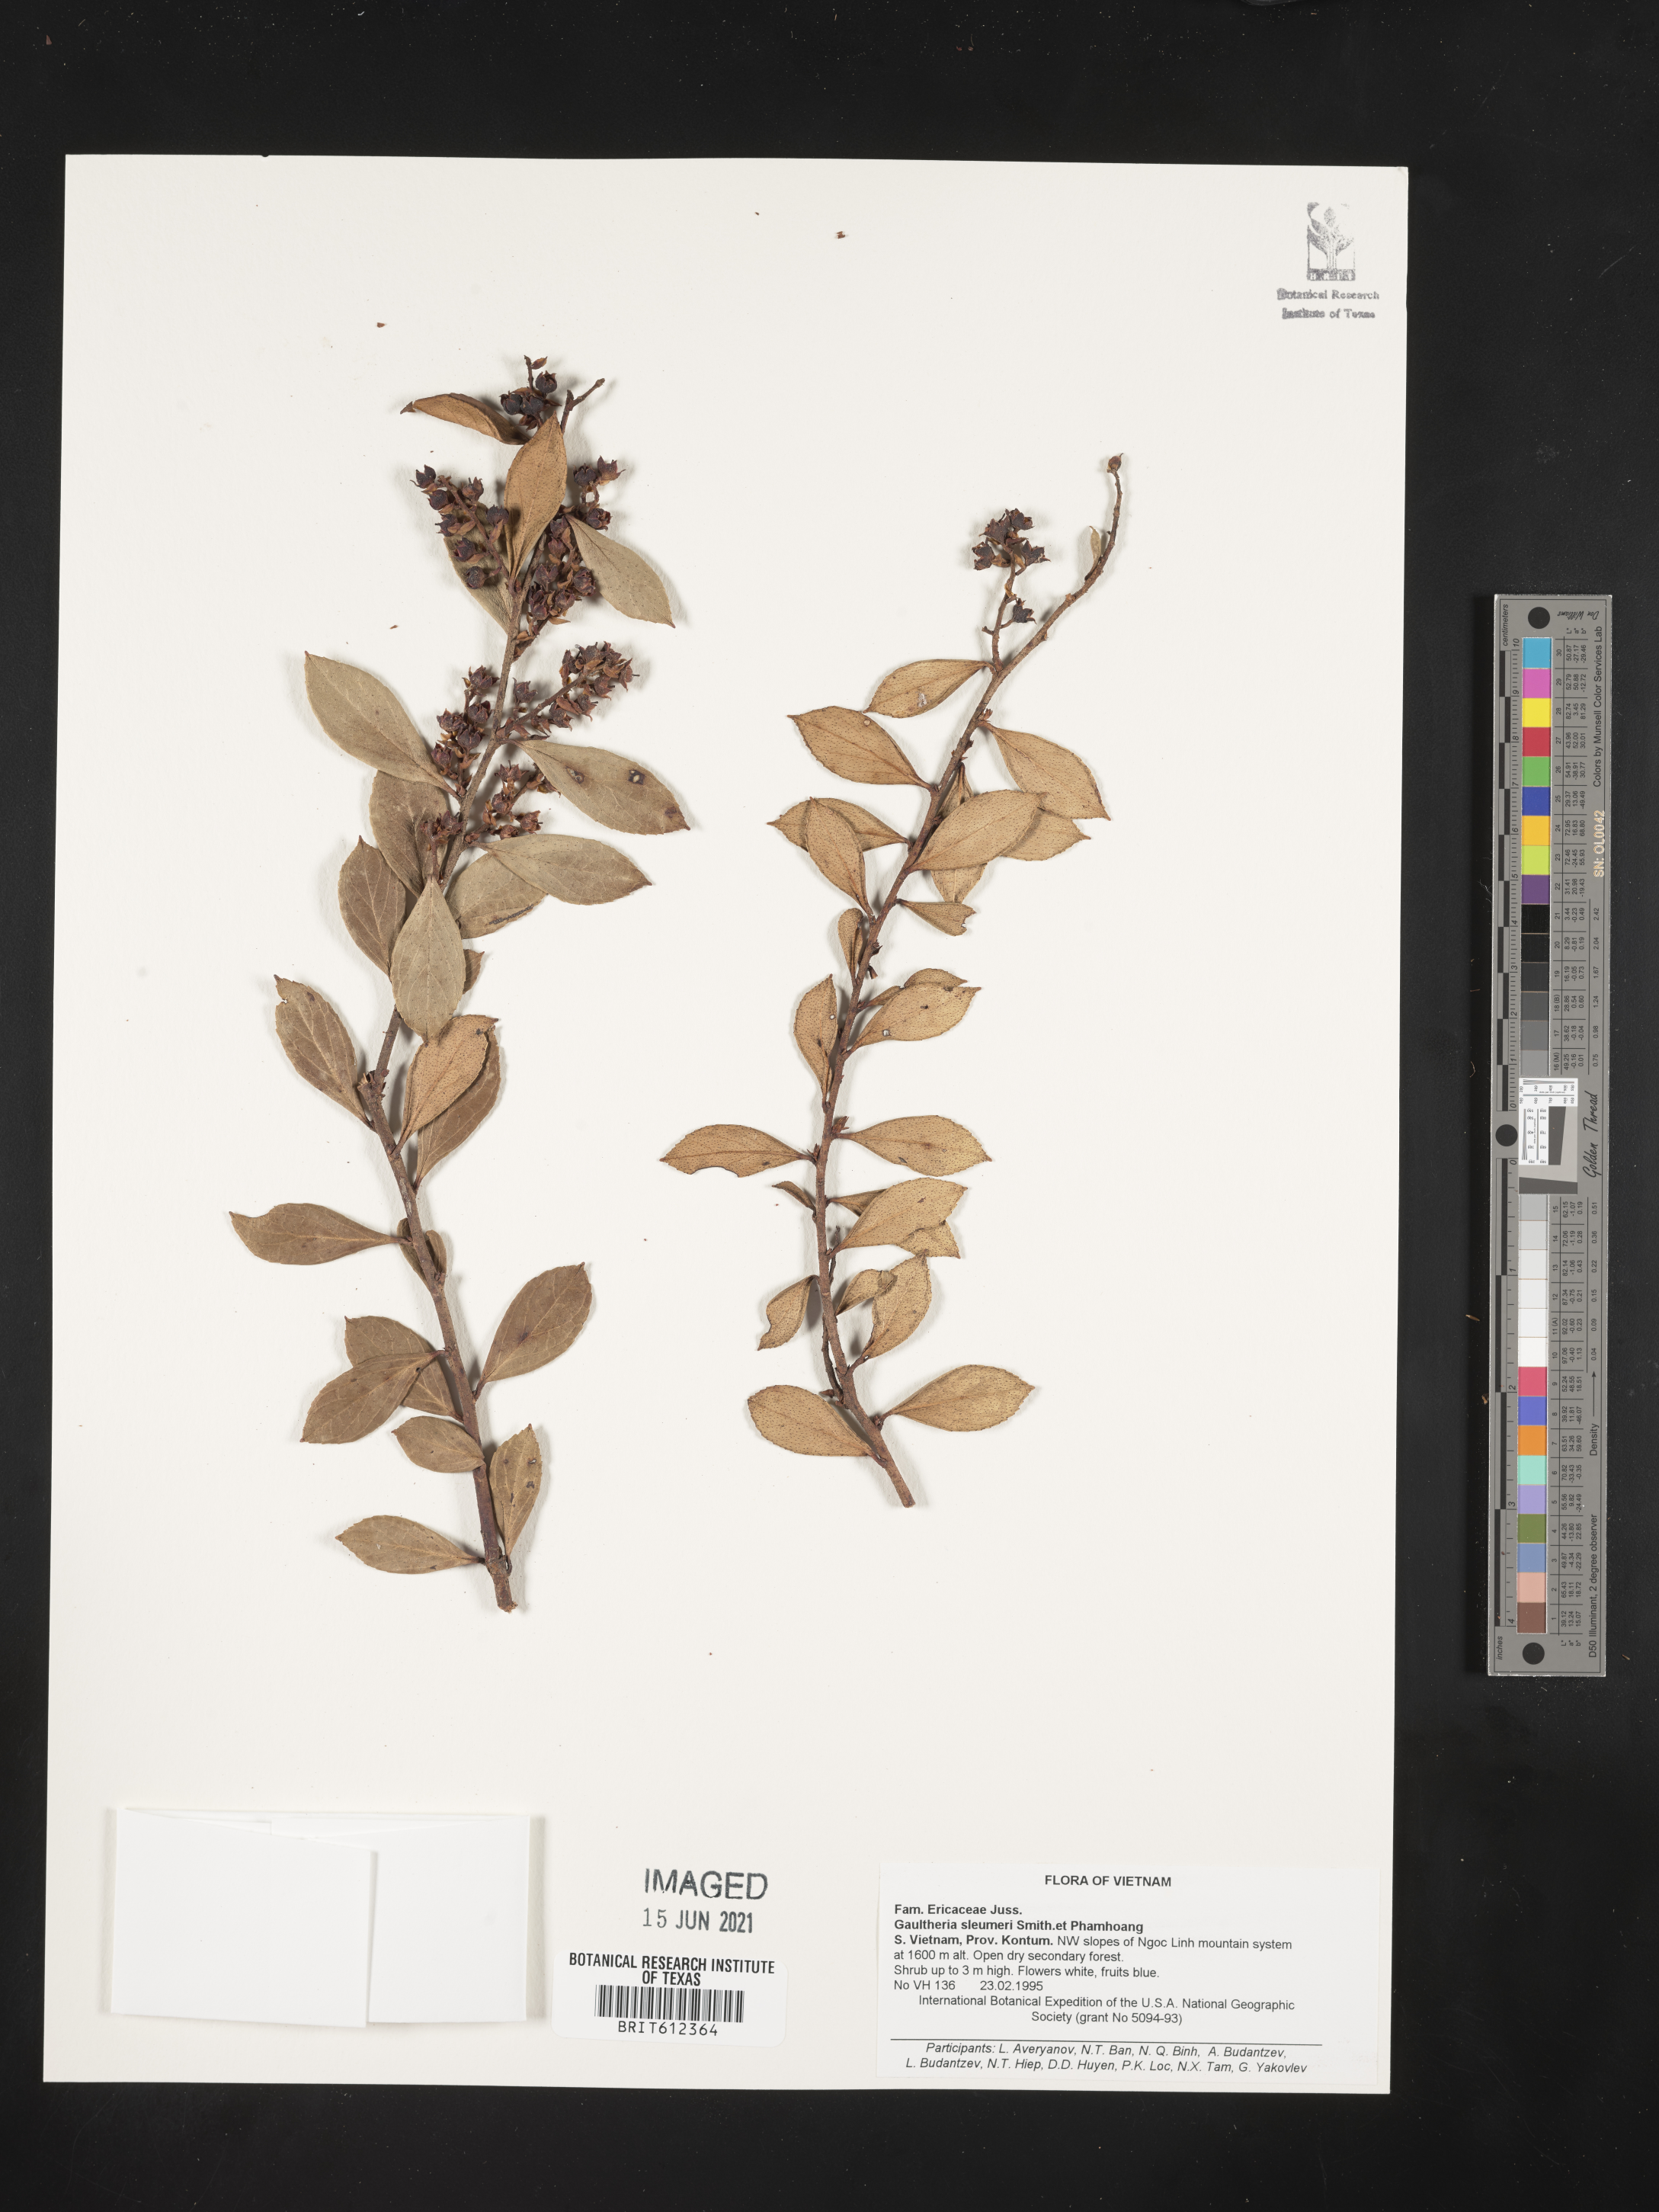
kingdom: Plantae
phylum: Tracheophyta
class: Magnoliopsida
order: Ericales
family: Ericaceae
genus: Gaultheria
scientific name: Gaultheria sleumeri
